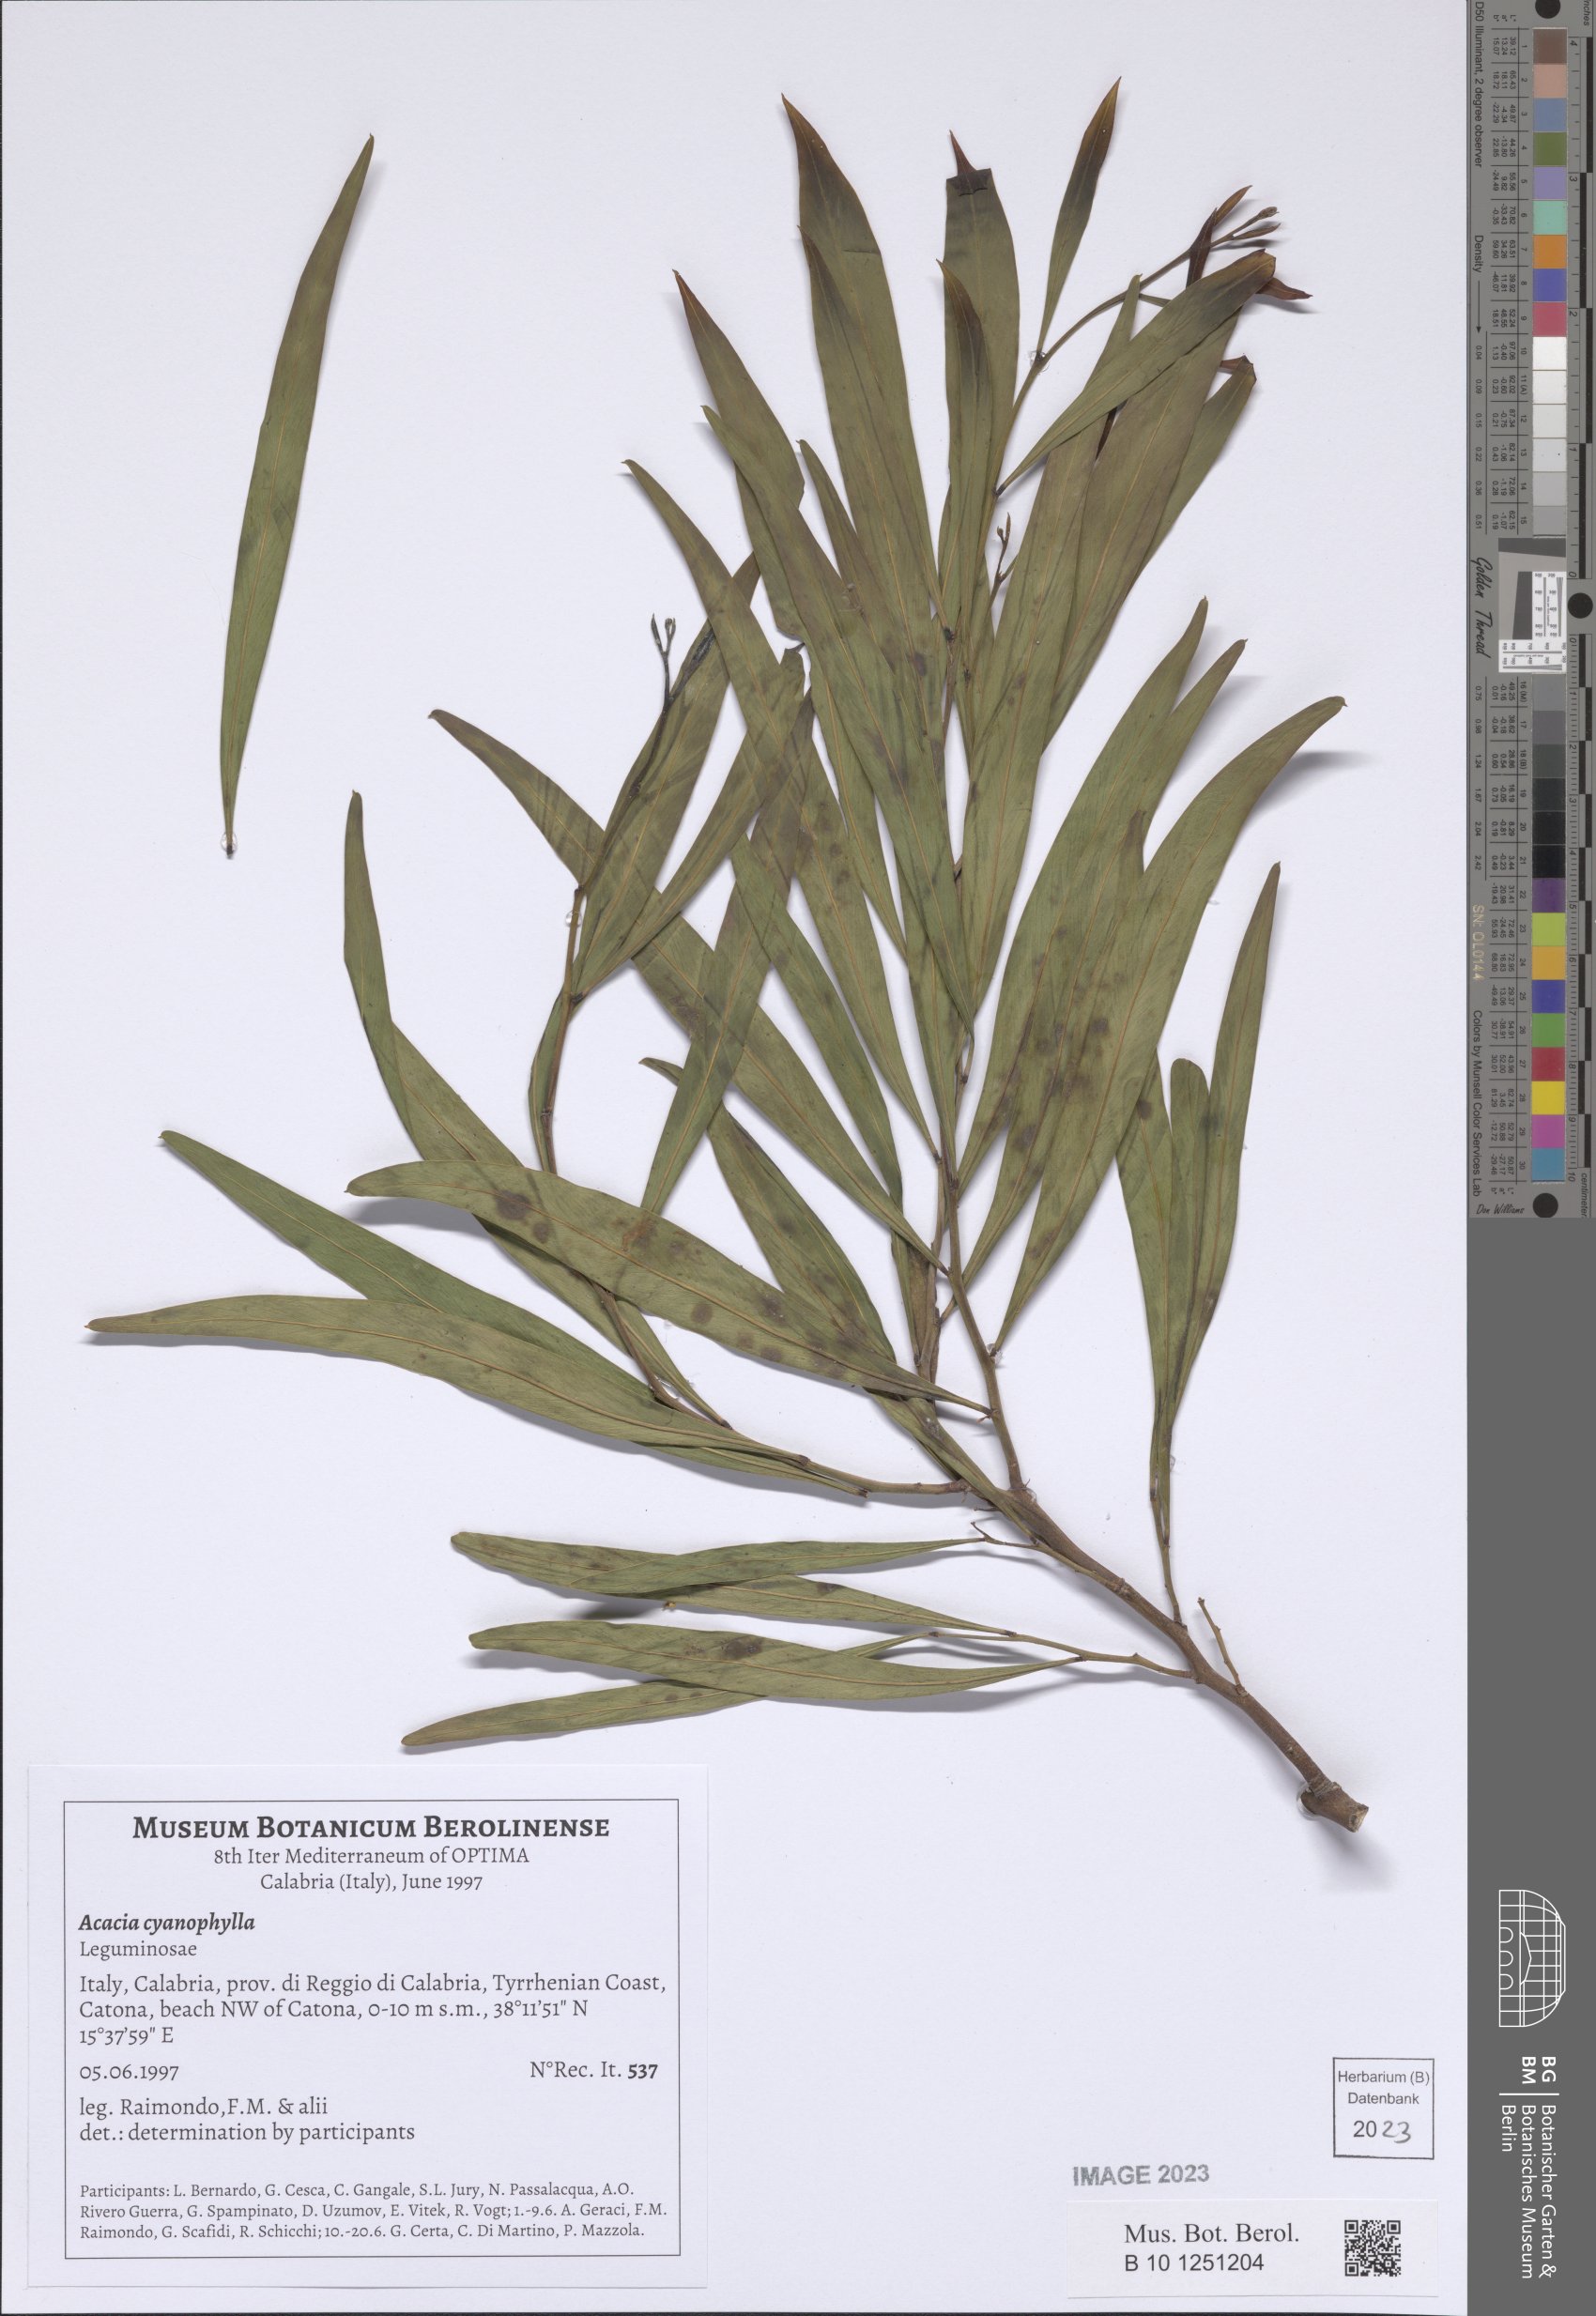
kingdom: Plantae
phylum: Tracheophyta
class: Magnoliopsida
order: Fabales
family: Fabaceae
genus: Acacia
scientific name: Acacia saligna
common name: Orange wattle
